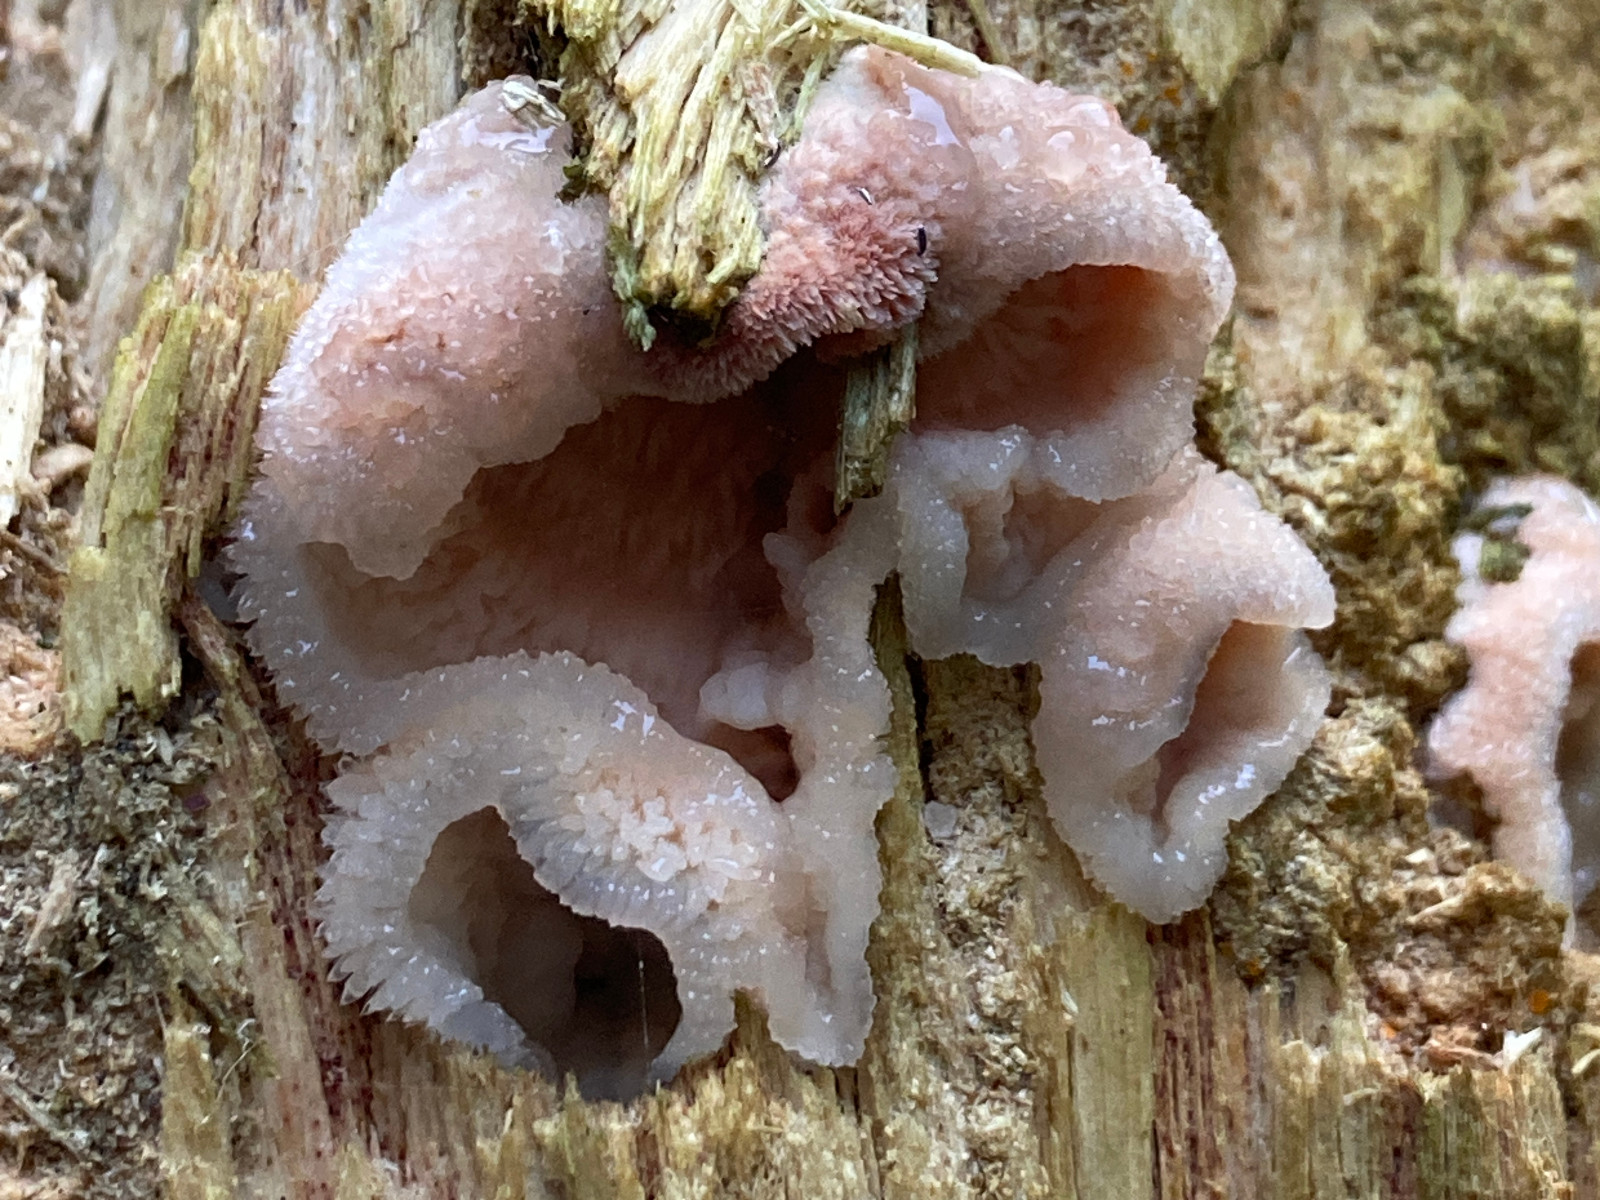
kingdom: Fungi
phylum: Basidiomycota
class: Agaricomycetes
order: Polyporales
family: Meruliaceae
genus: Phlebia
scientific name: Phlebia tremellosa
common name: bævrende åresvamp
